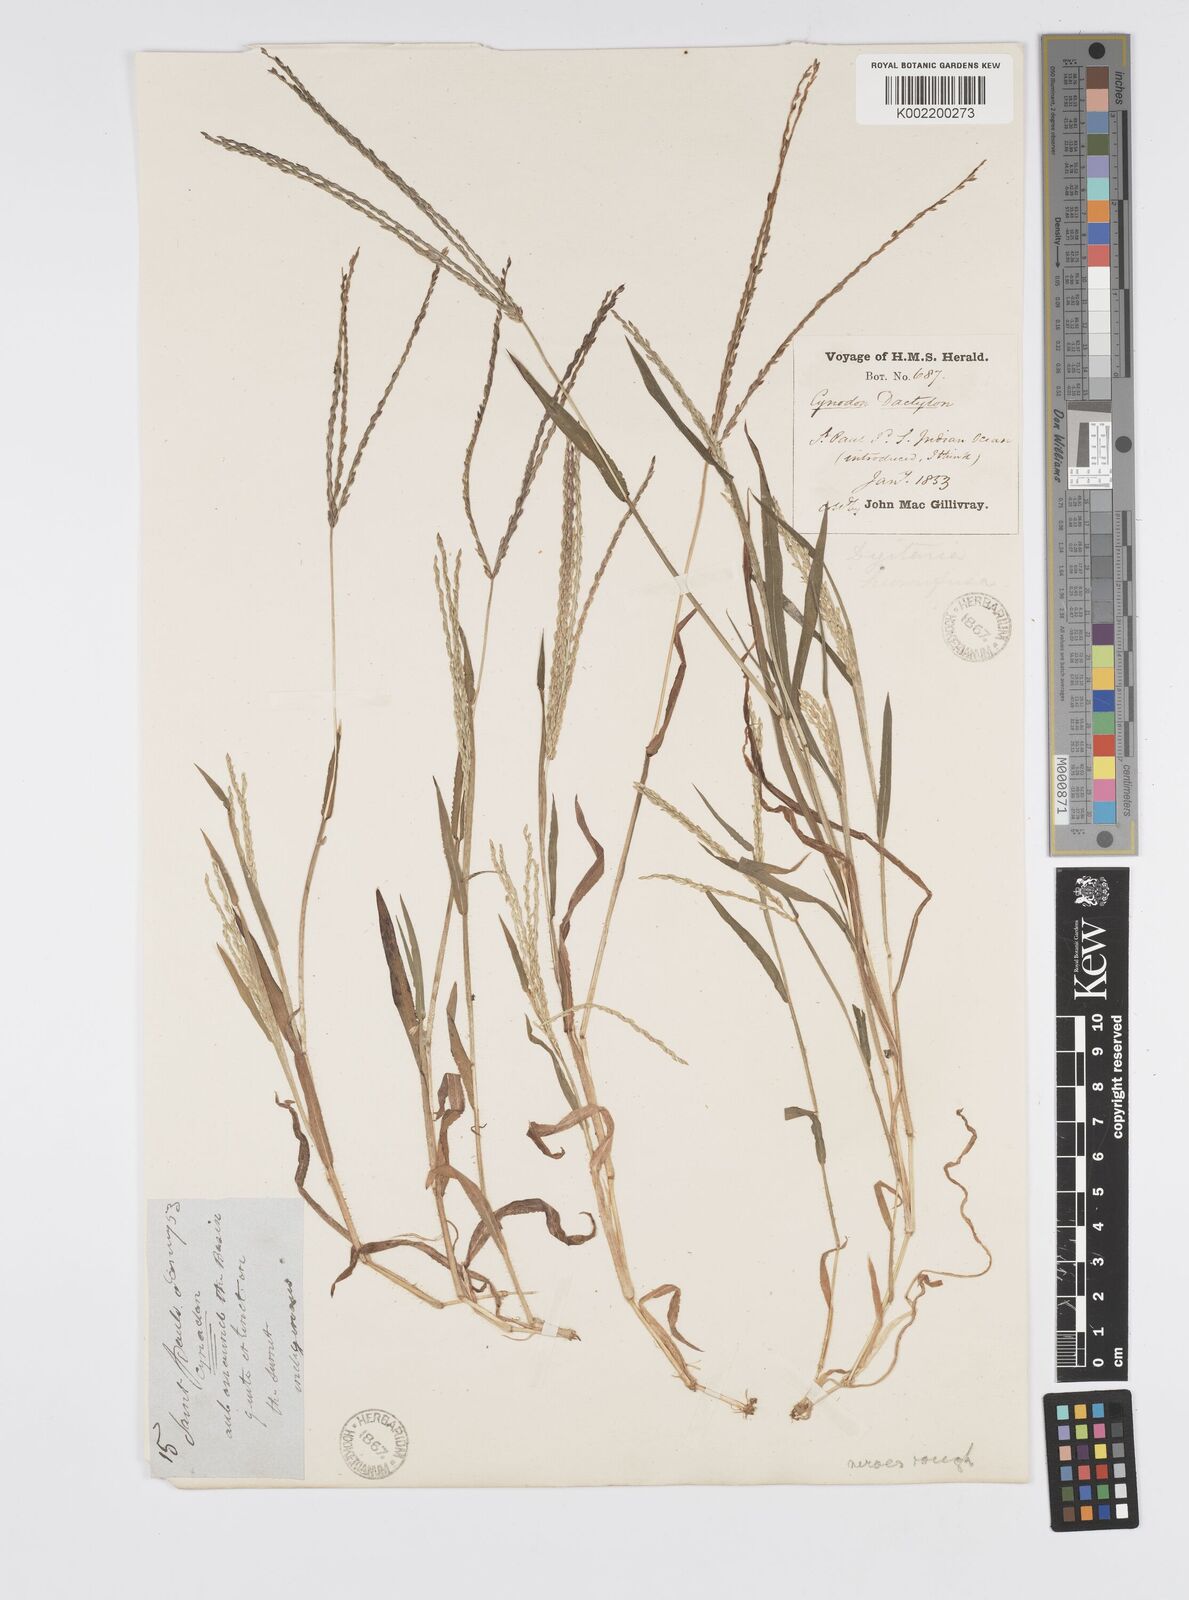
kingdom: Plantae
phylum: Tracheophyta
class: Liliopsida
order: Poales
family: Poaceae
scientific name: Poaceae
